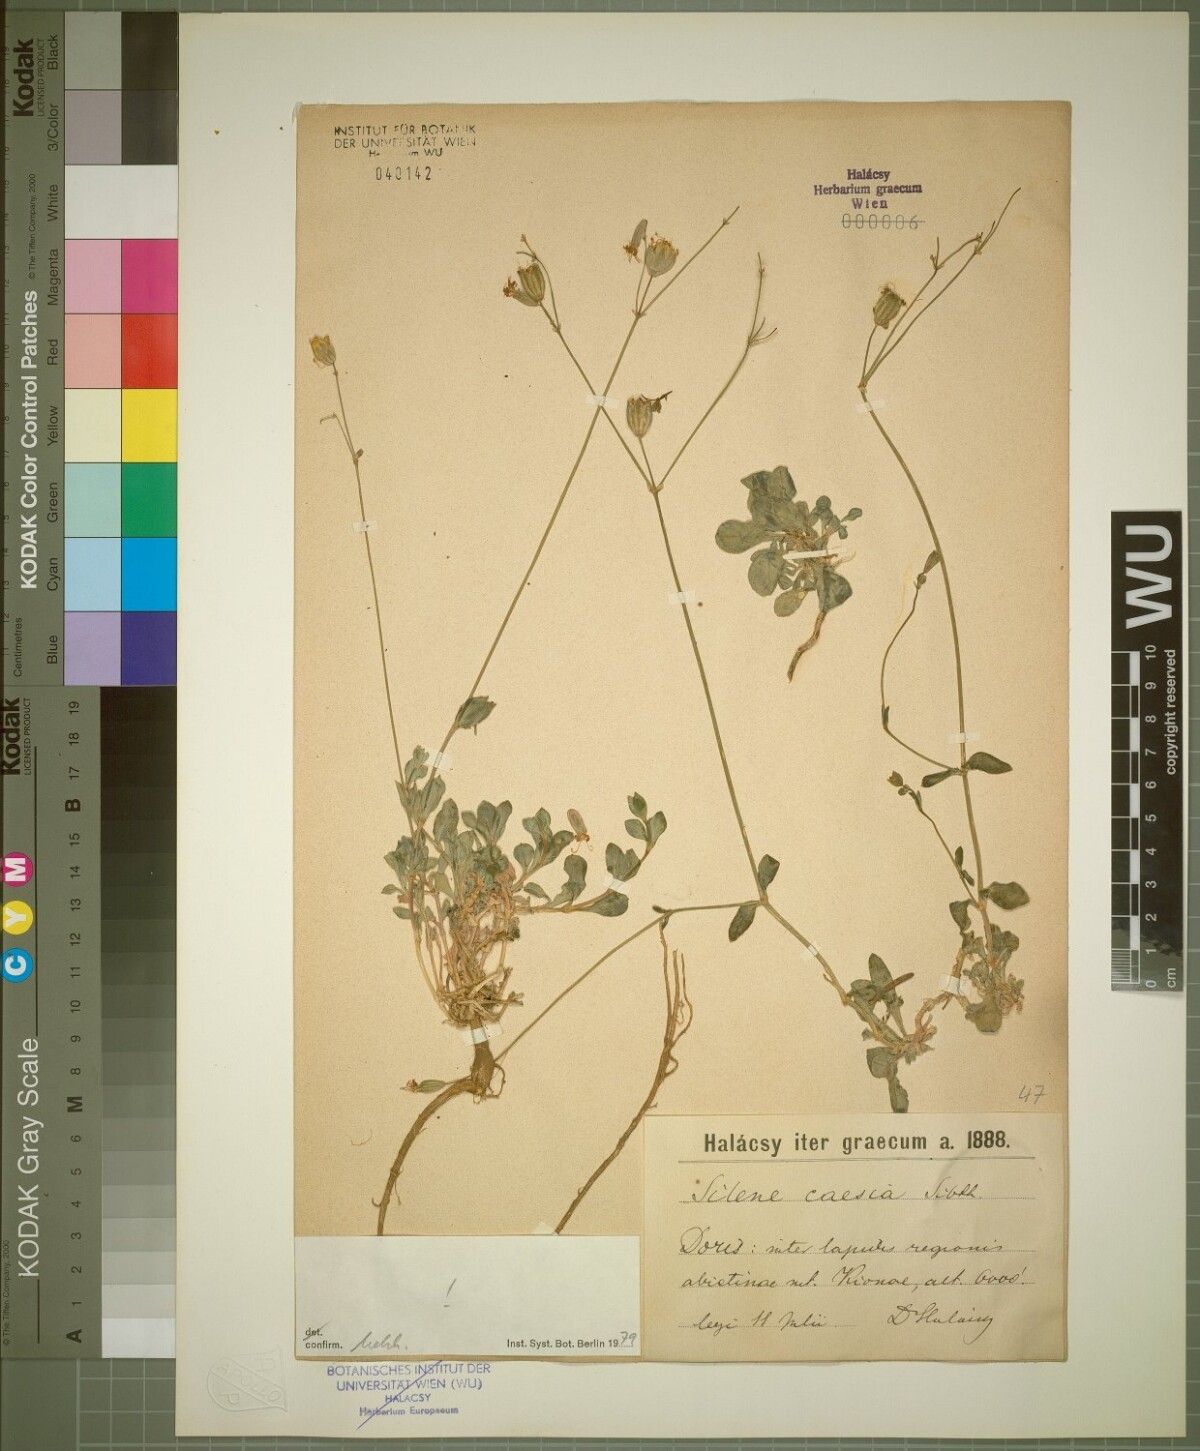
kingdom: Plantae
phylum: Tracheophyta
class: Magnoliopsida
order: Caryophyllales
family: Caryophyllaceae
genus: Silene
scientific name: Silene caesia
